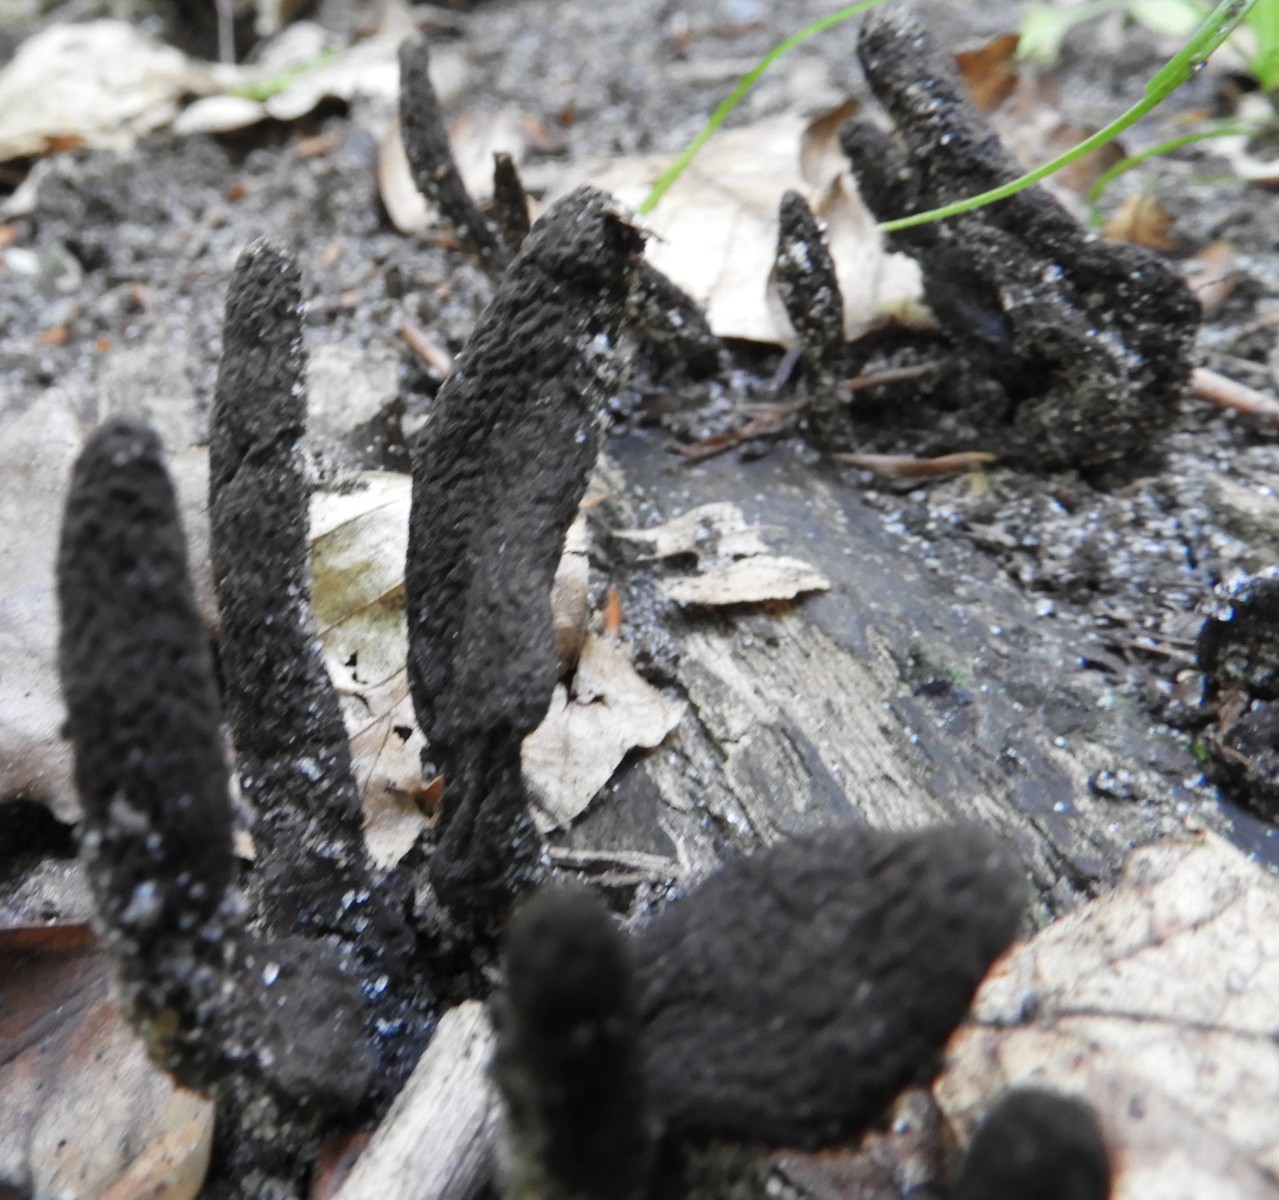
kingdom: Fungi
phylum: Ascomycota
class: Sordariomycetes
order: Xylariales
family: Xylariaceae
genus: Xylaria
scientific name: Xylaria longipes
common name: slank stødsvamp
